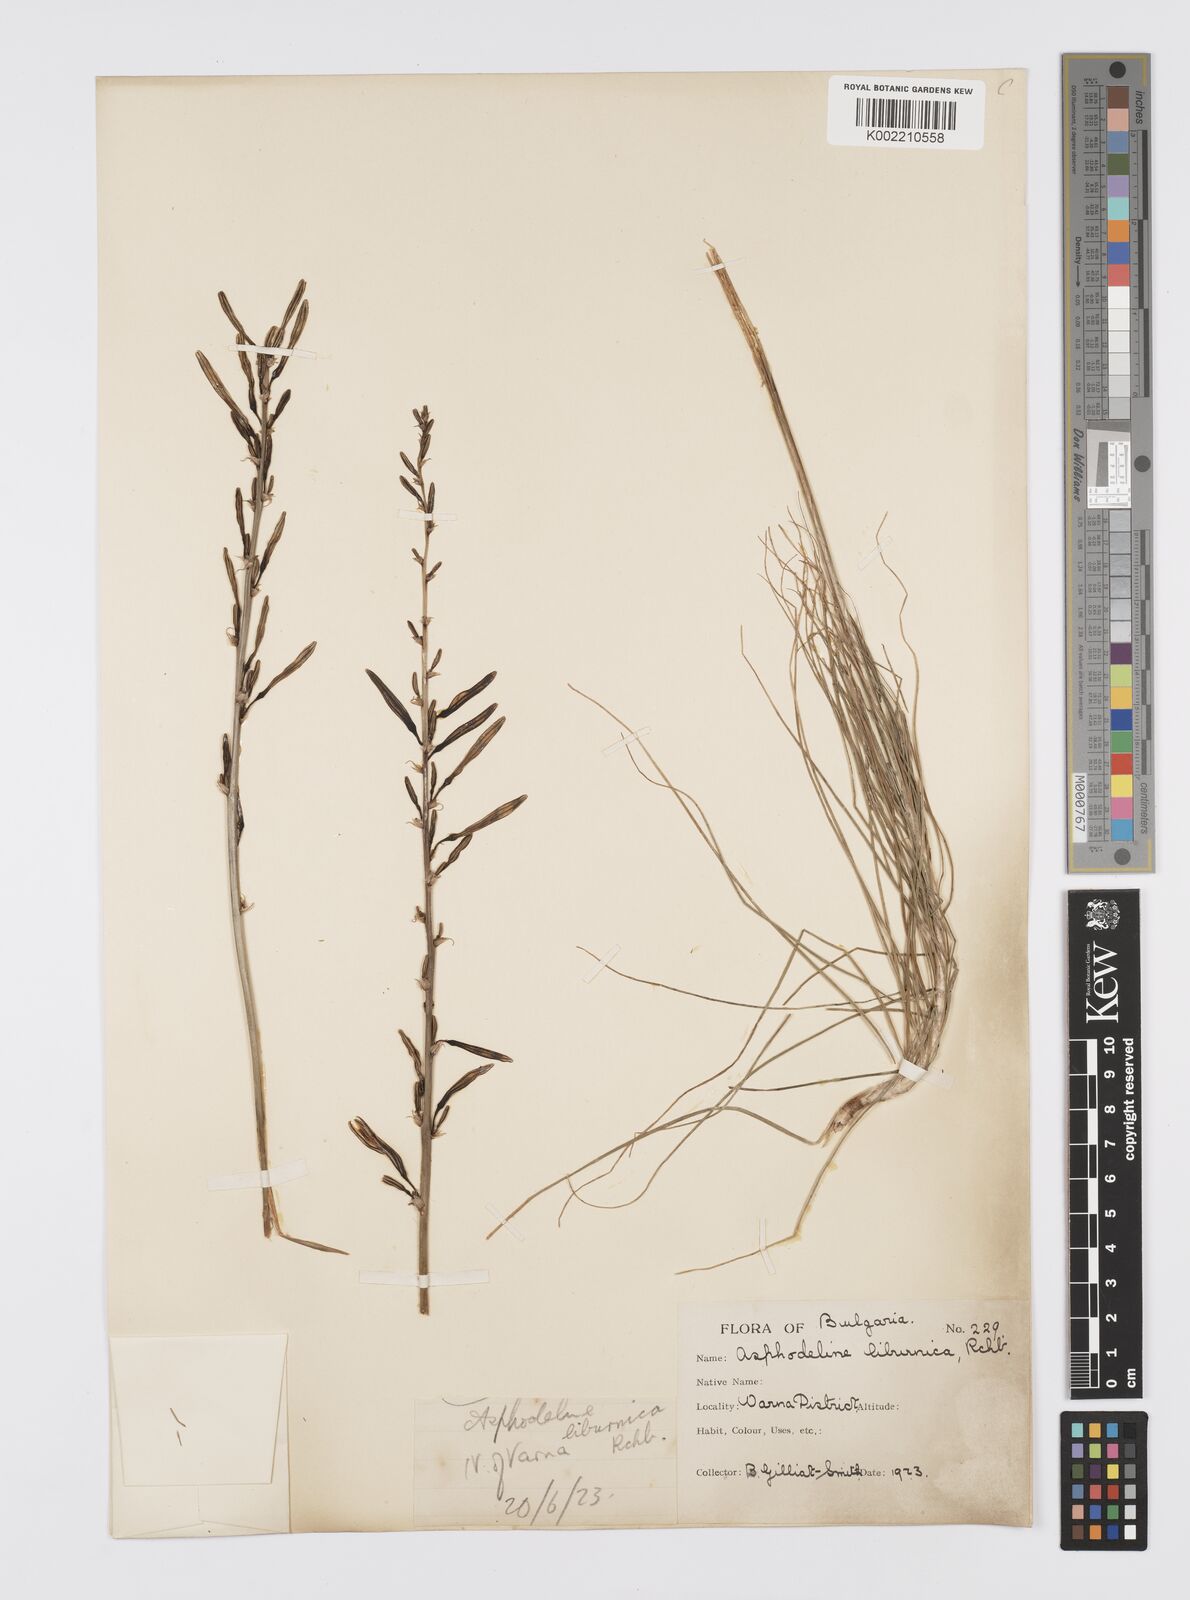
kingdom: Plantae
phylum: Tracheophyta
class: Liliopsida
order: Asparagales
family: Asphodelaceae
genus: Asphodeline
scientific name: Asphodeline liburnica
